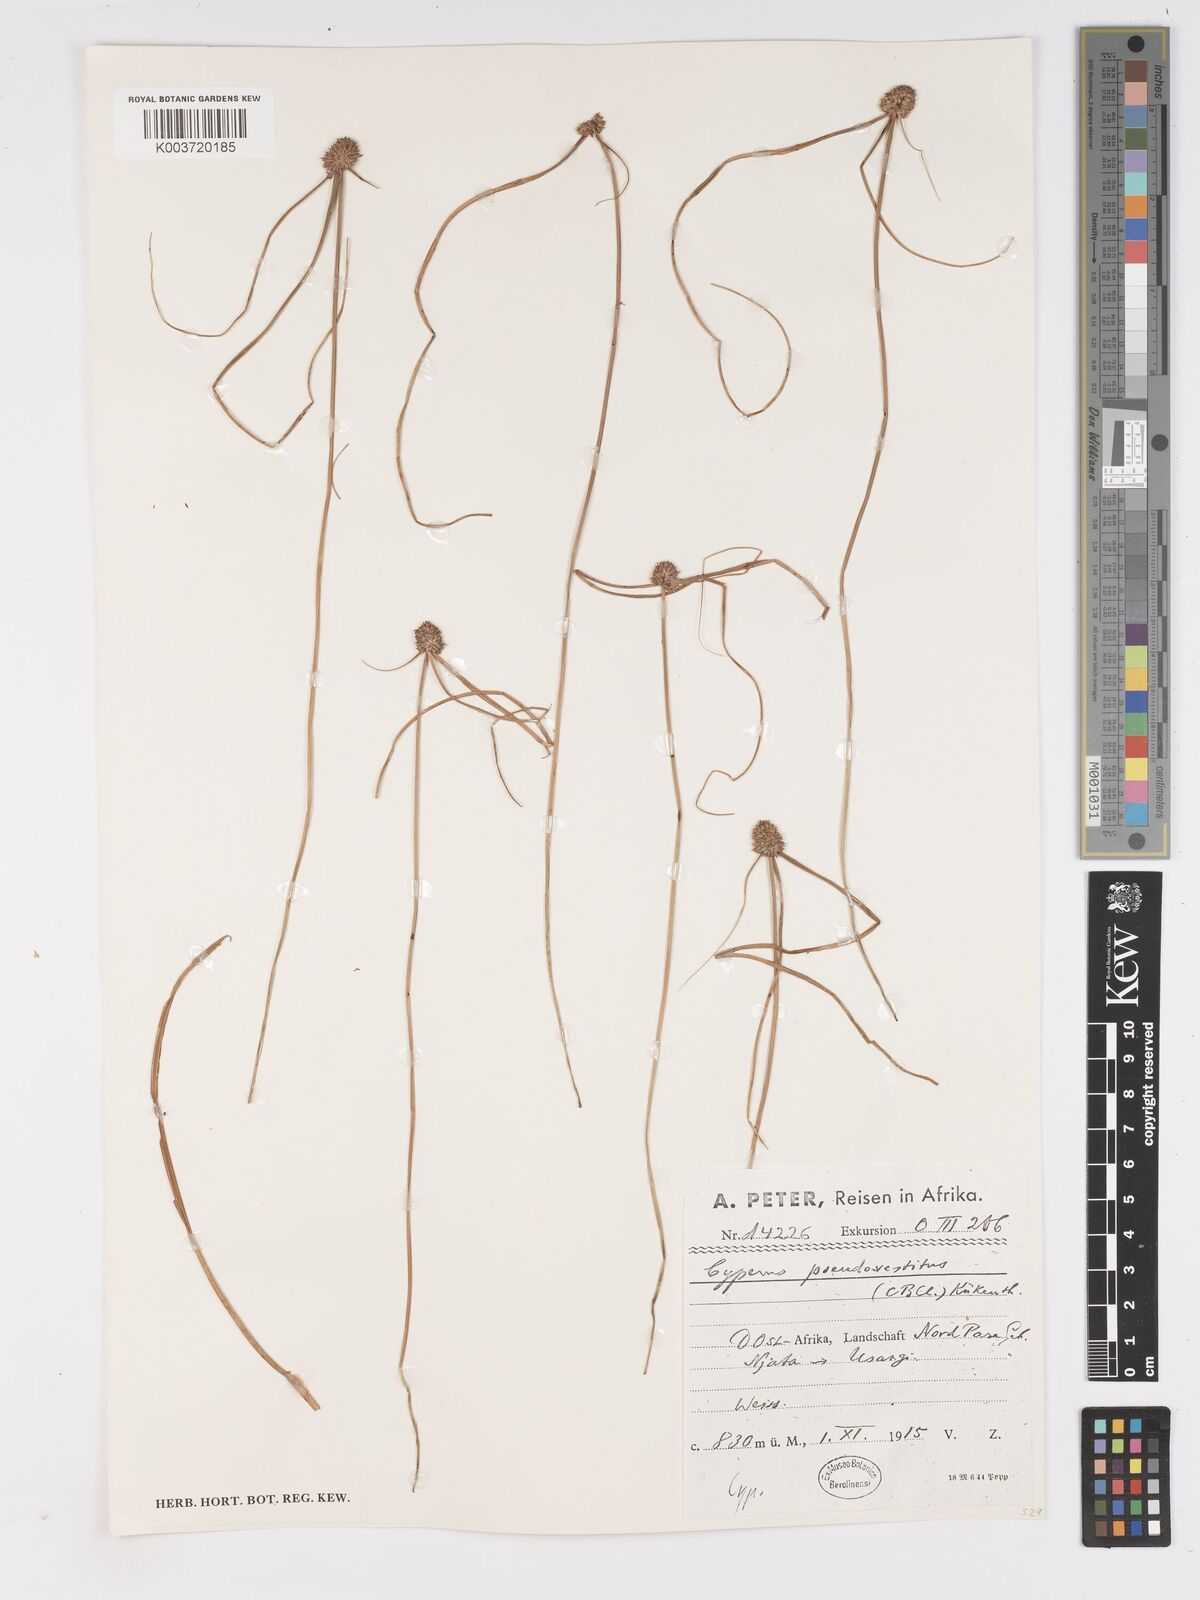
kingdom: Plantae
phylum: Tracheophyta
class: Liliopsida
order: Poales
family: Cyperaceae
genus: Cyperus
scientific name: Cyperus pseudovestitus
